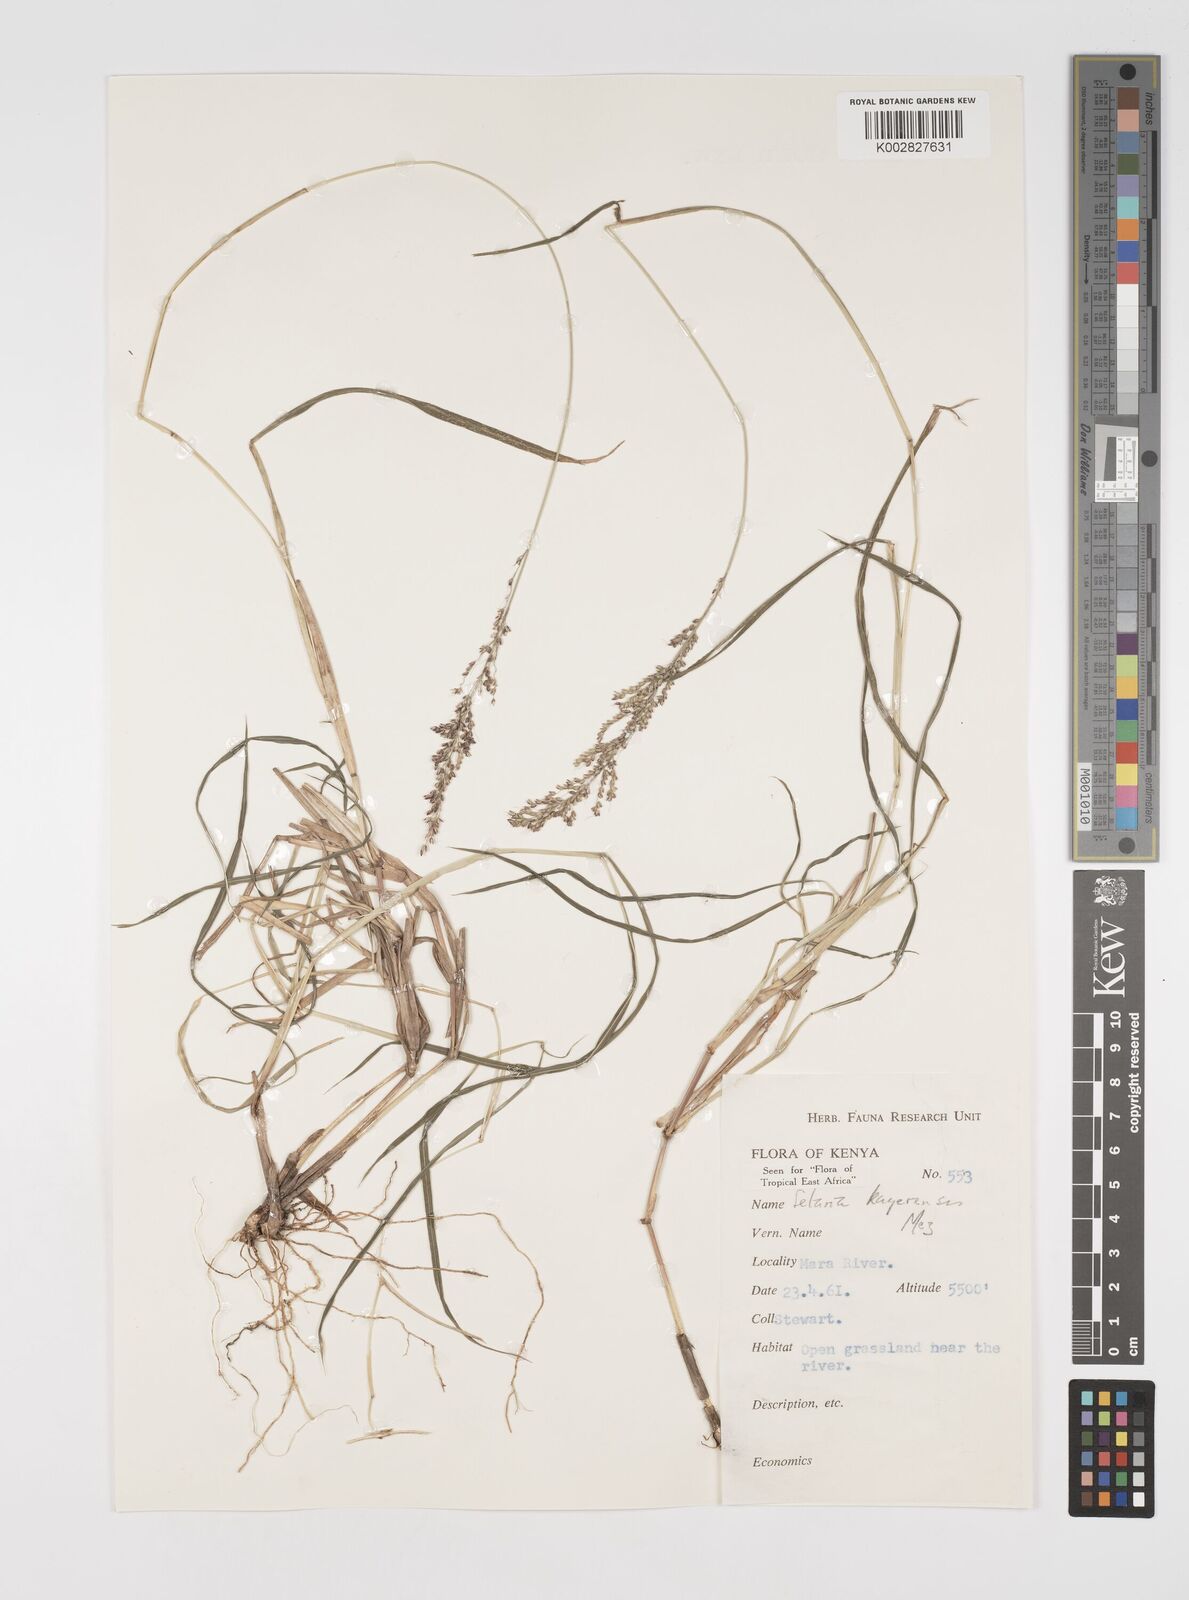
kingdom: Plantae
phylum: Tracheophyta
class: Liliopsida
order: Poales
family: Poaceae
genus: Setaria
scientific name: Setaria kagerensis
